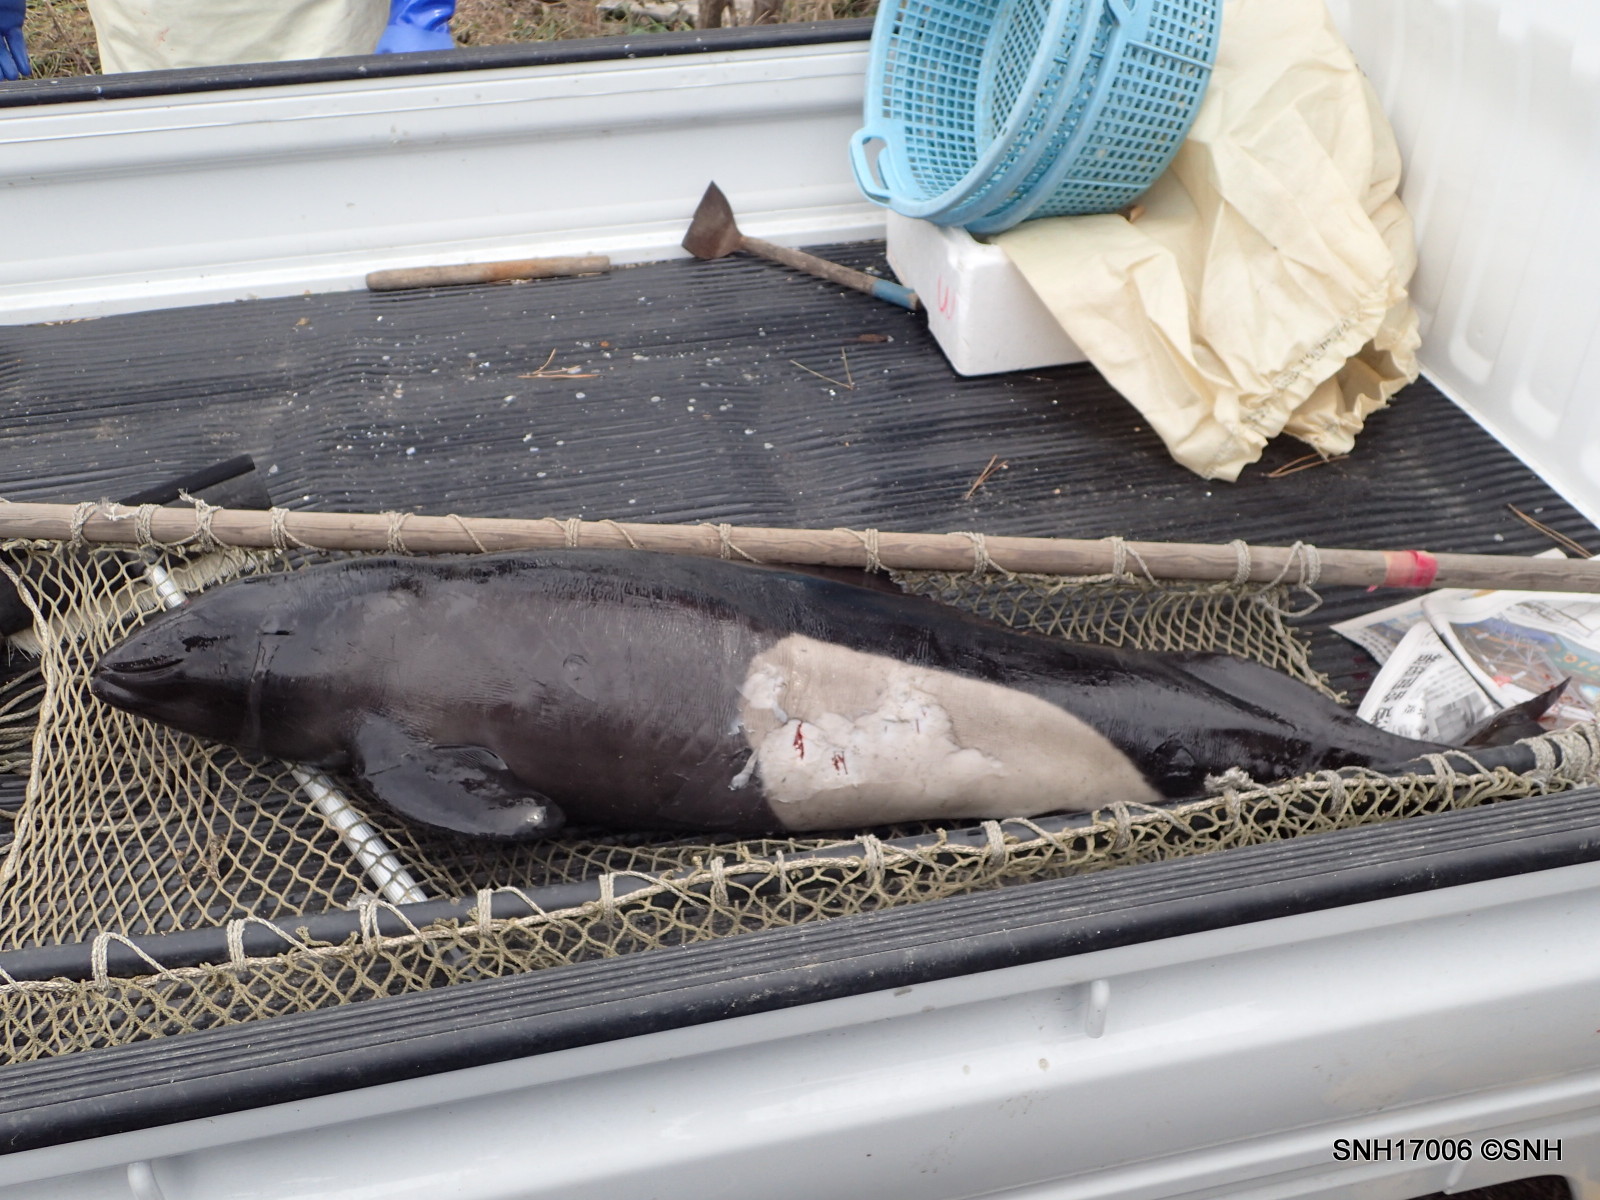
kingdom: Animalia
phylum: Chordata
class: Mammalia
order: Cetacea
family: Phocoenidae
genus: Phocoenoides
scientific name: Phocoenoides dalli
